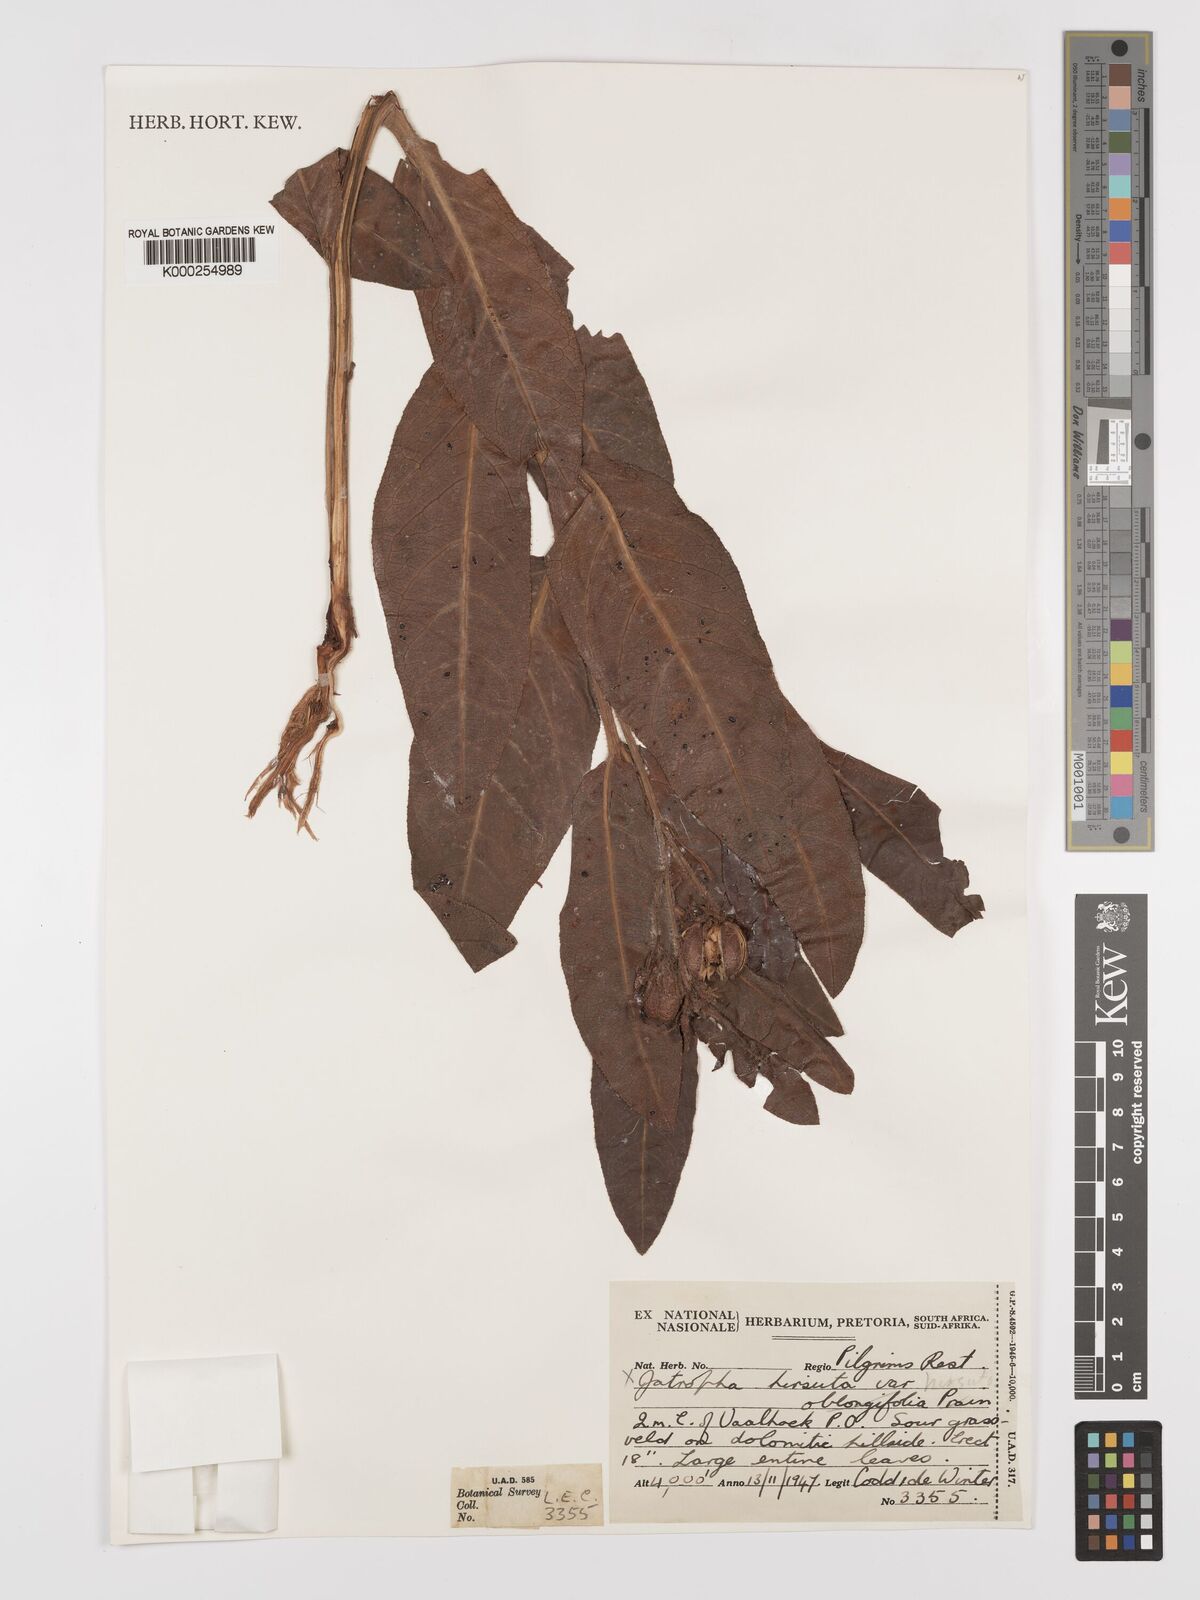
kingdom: Plantae
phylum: Tracheophyta
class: Magnoliopsida
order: Malpighiales
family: Euphorbiaceae
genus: Jatropha
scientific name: Jatropha hirsuta
